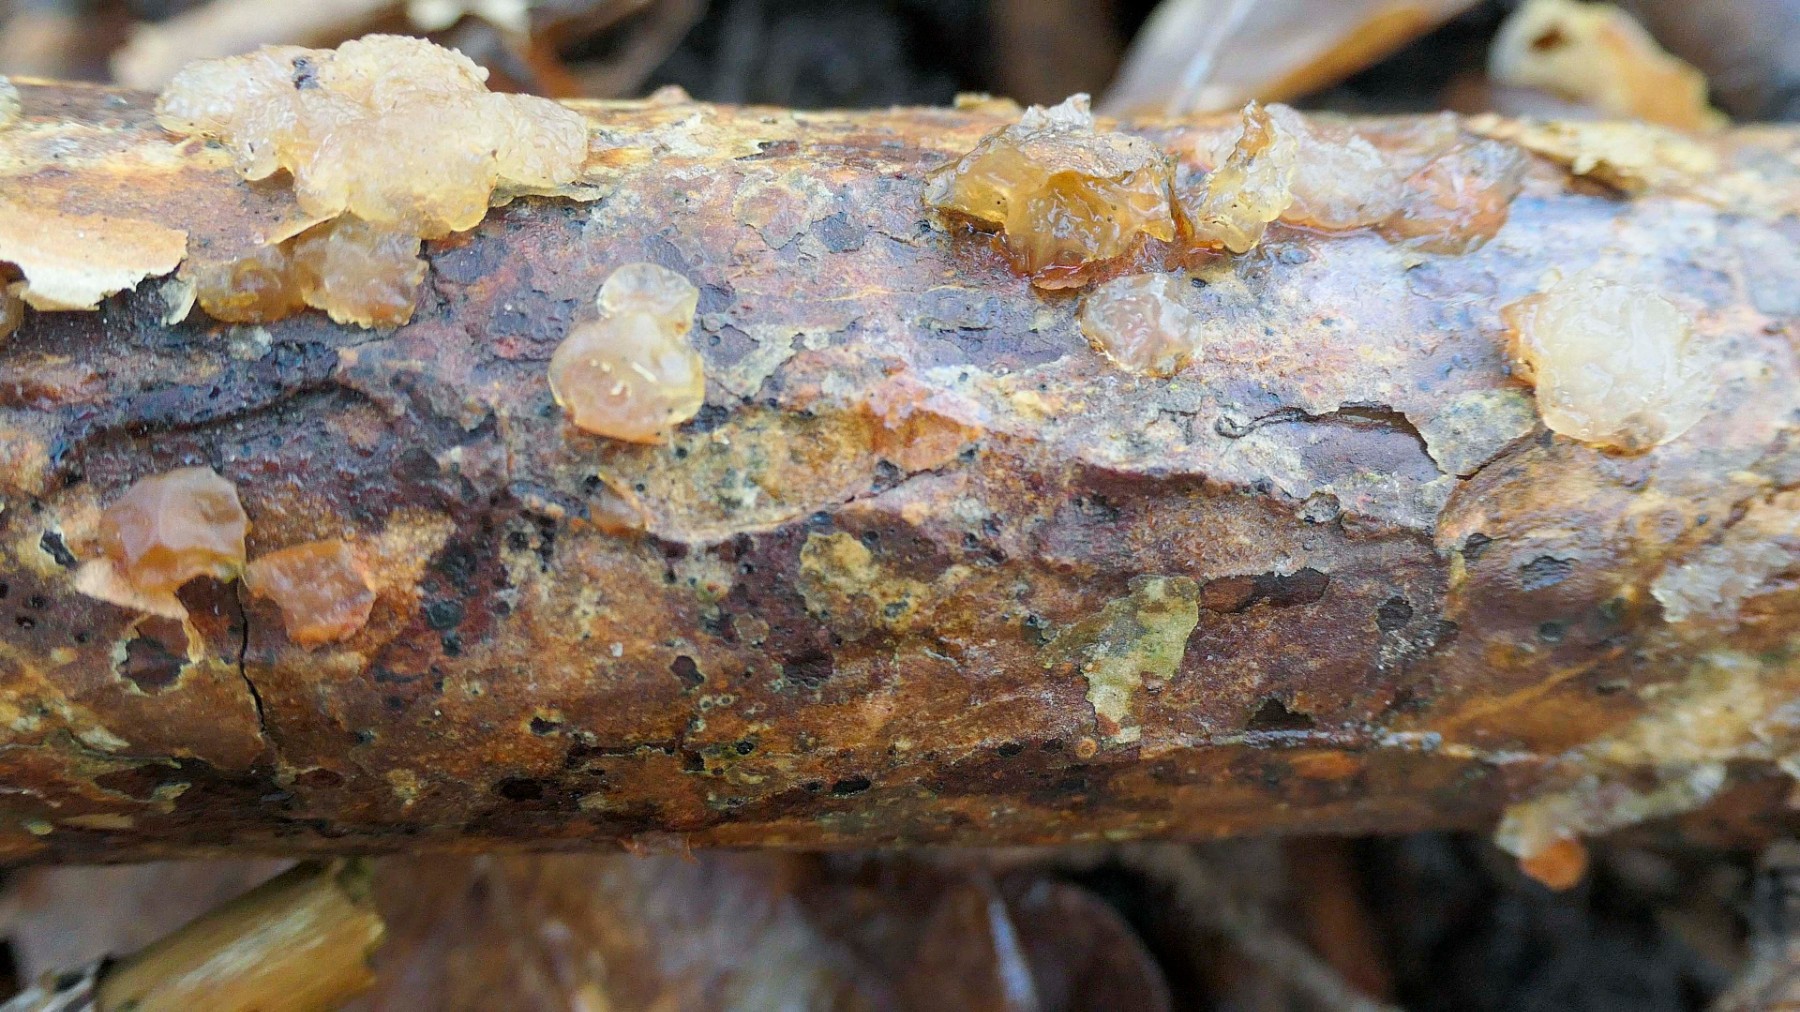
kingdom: Fungi
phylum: Basidiomycota
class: Agaricomycetes
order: Auriculariales
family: Auriculariaceae
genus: Exidia
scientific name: Exidia saccharina
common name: kandis-bævretop
